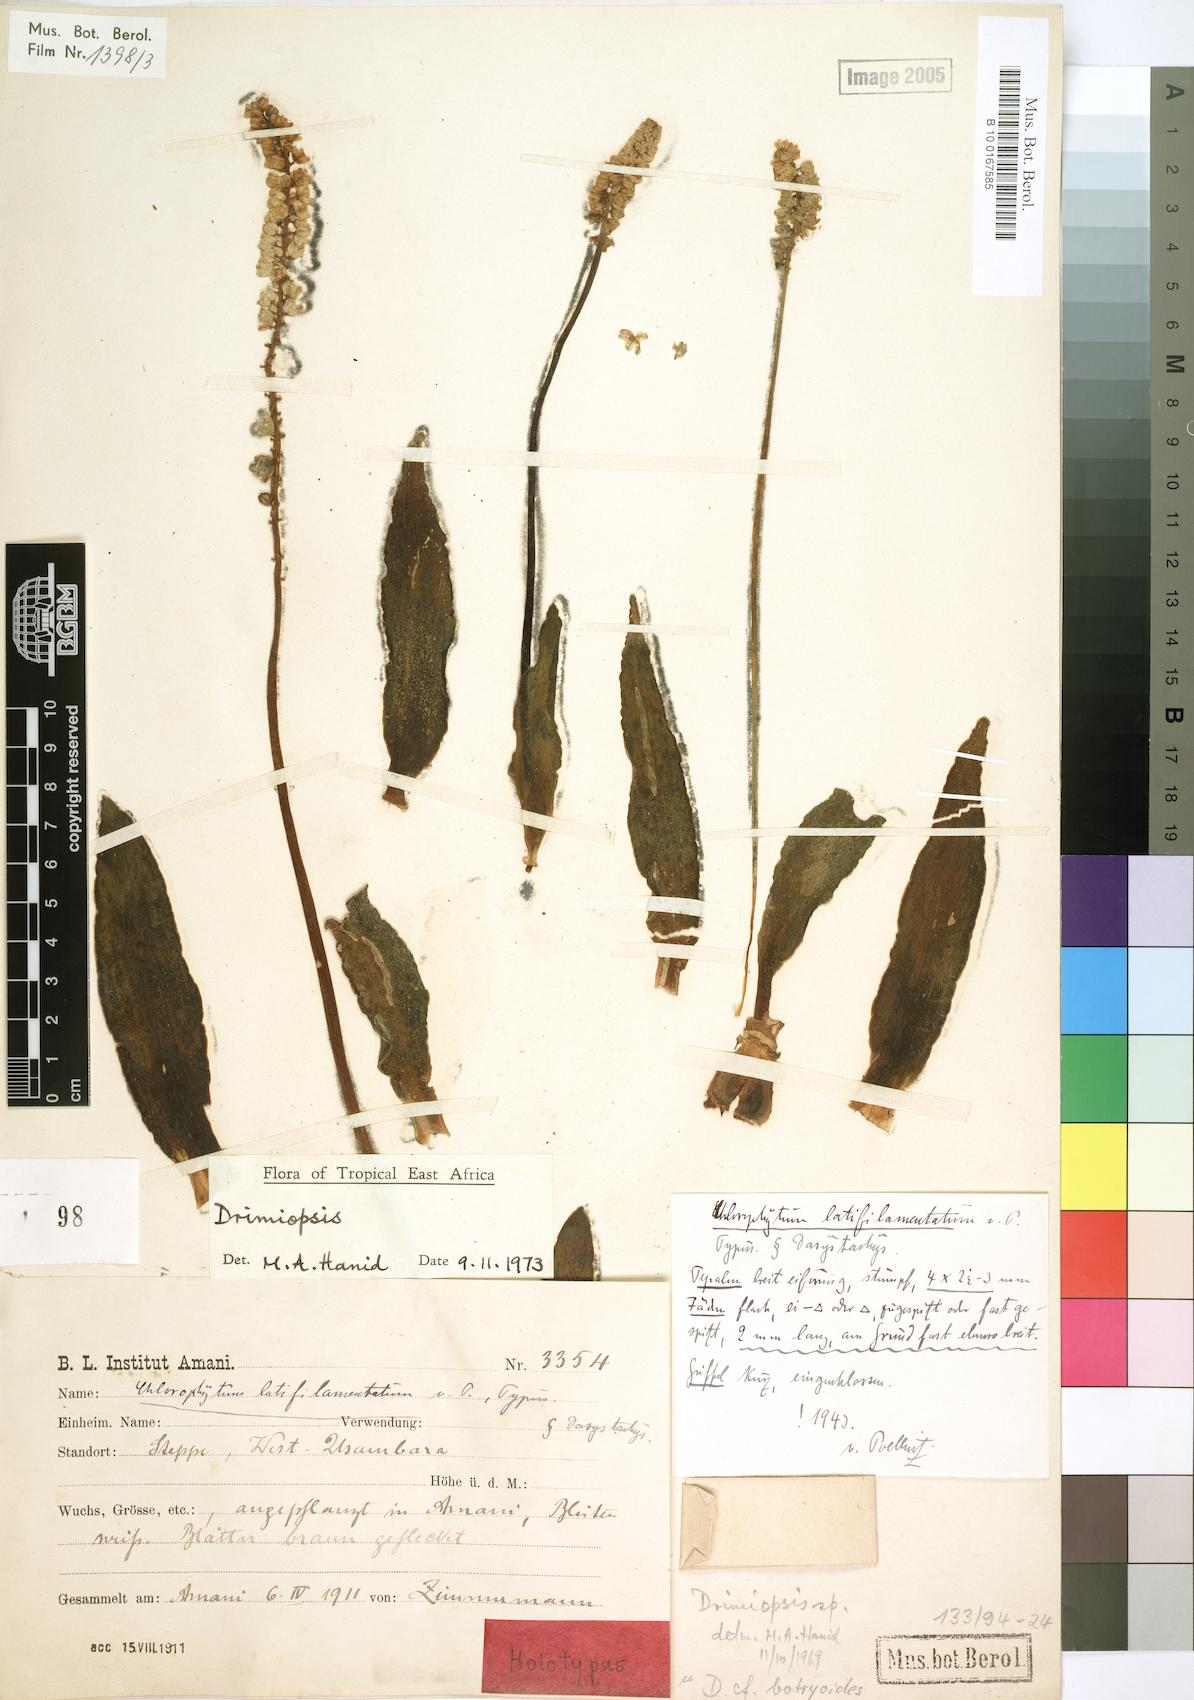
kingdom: Plantae
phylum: Tracheophyta
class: Liliopsida
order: Asparagales
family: Asparagaceae
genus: Drimiopsis
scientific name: Drimiopsis
